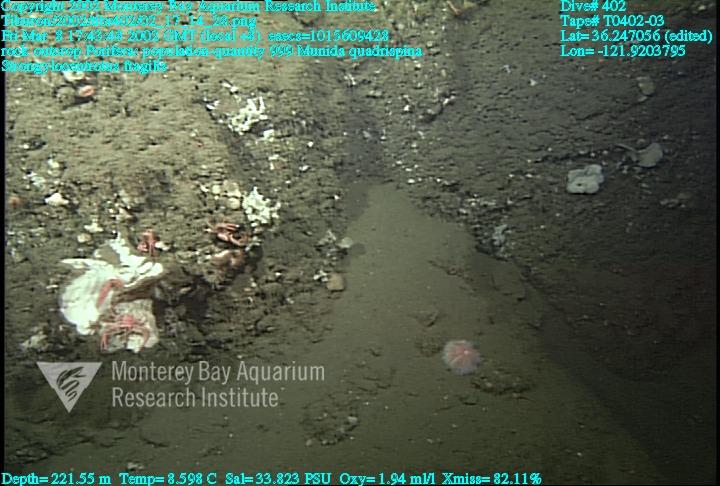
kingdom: Animalia
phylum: Porifera
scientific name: Porifera
